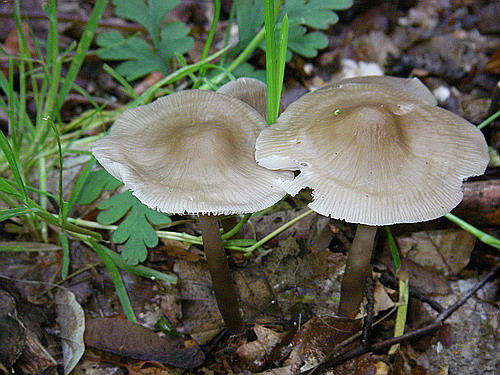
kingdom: Fungi
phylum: Basidiomycota
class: Agaricomycetes
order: Agaricales
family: Mycenaceae
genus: Mycena
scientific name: Mycena galericulata
